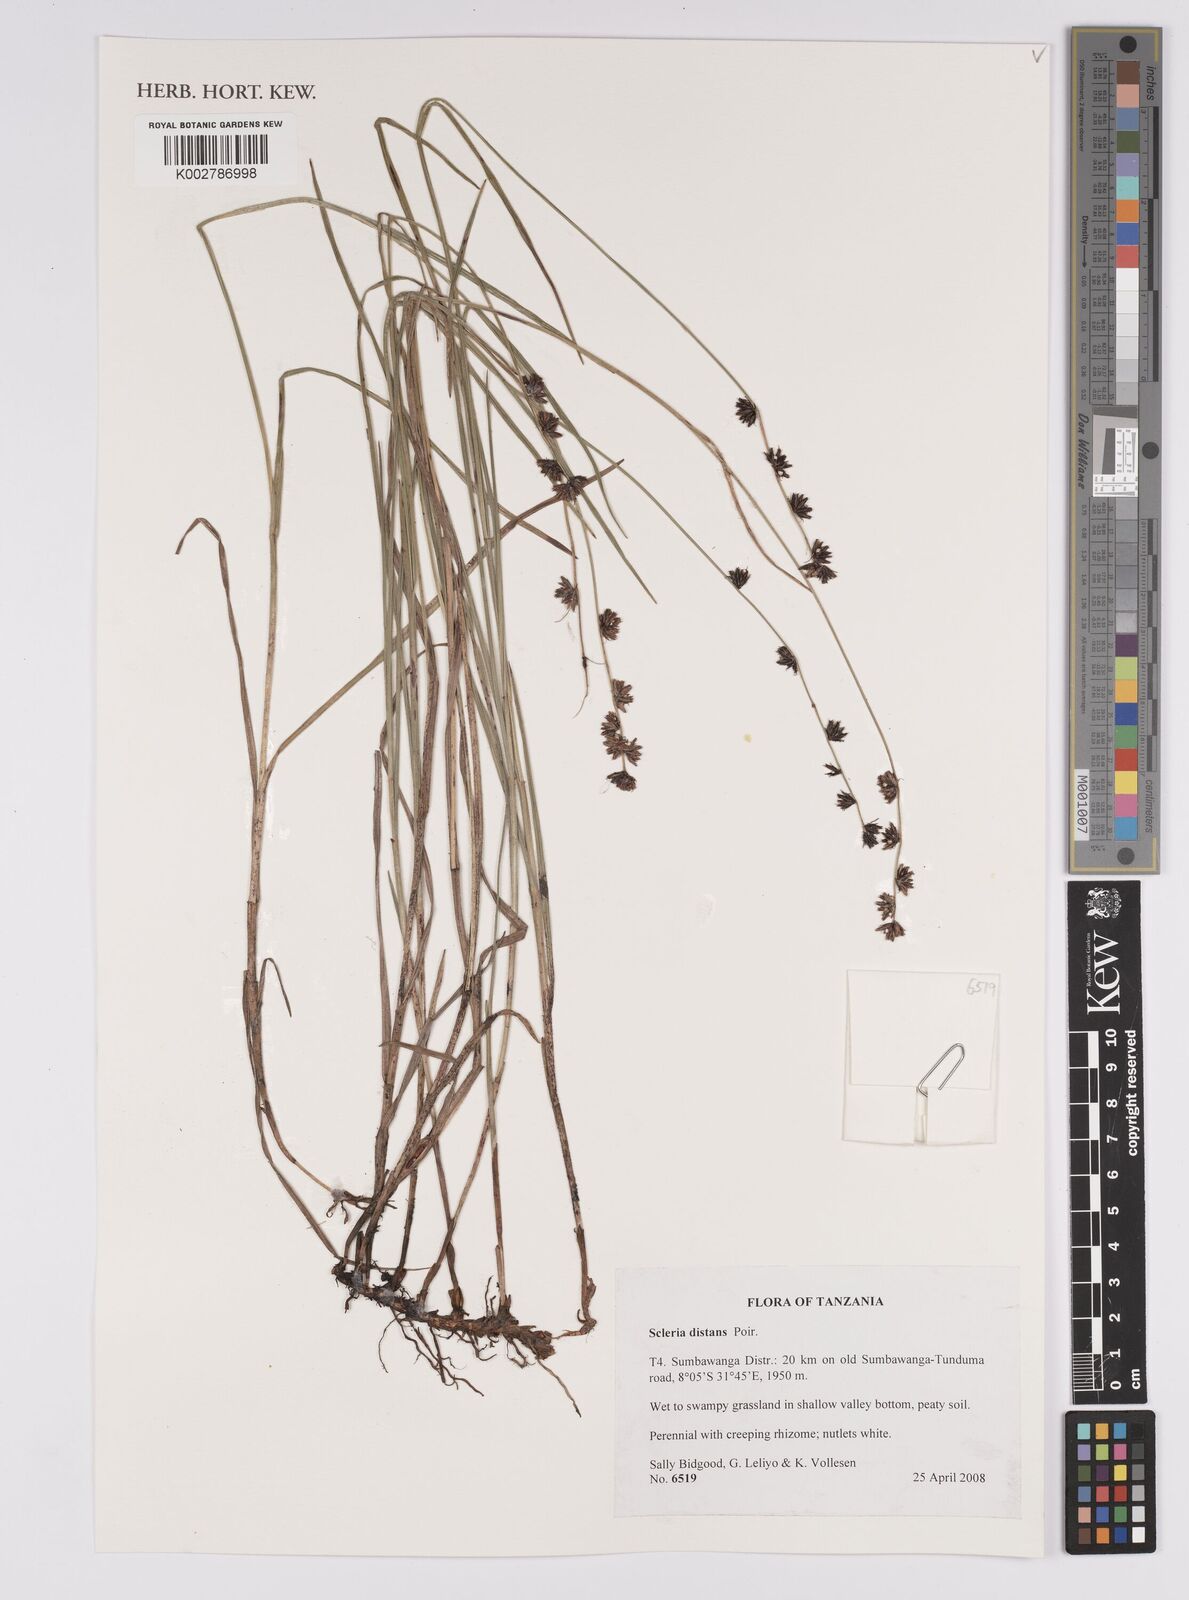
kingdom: Plantae
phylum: Tracheophyta
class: Liliopsida
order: Poales
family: Cyperaceae
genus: Scleria
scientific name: Scleria distans
